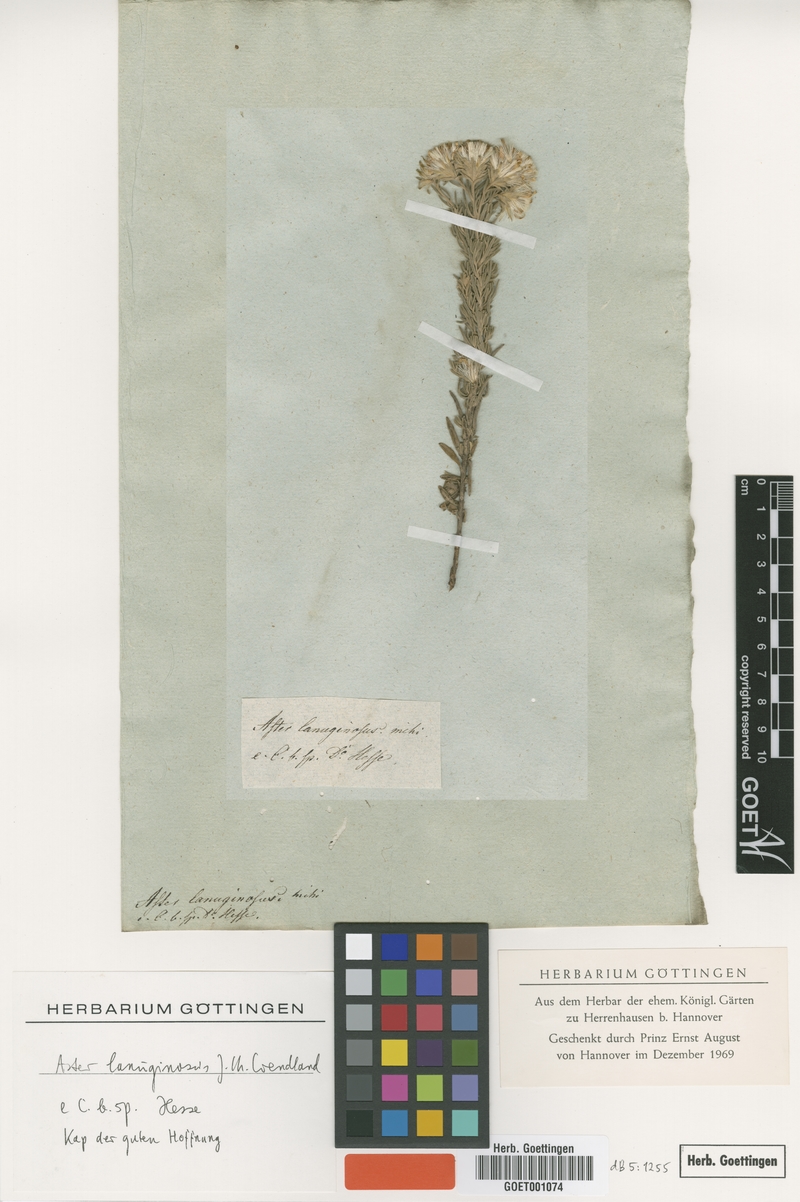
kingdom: Plantae
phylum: Tracheophyta
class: Magnoliopsida
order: Asterales
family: Asteraceae
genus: Felicia
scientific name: Felicia hirsuta
